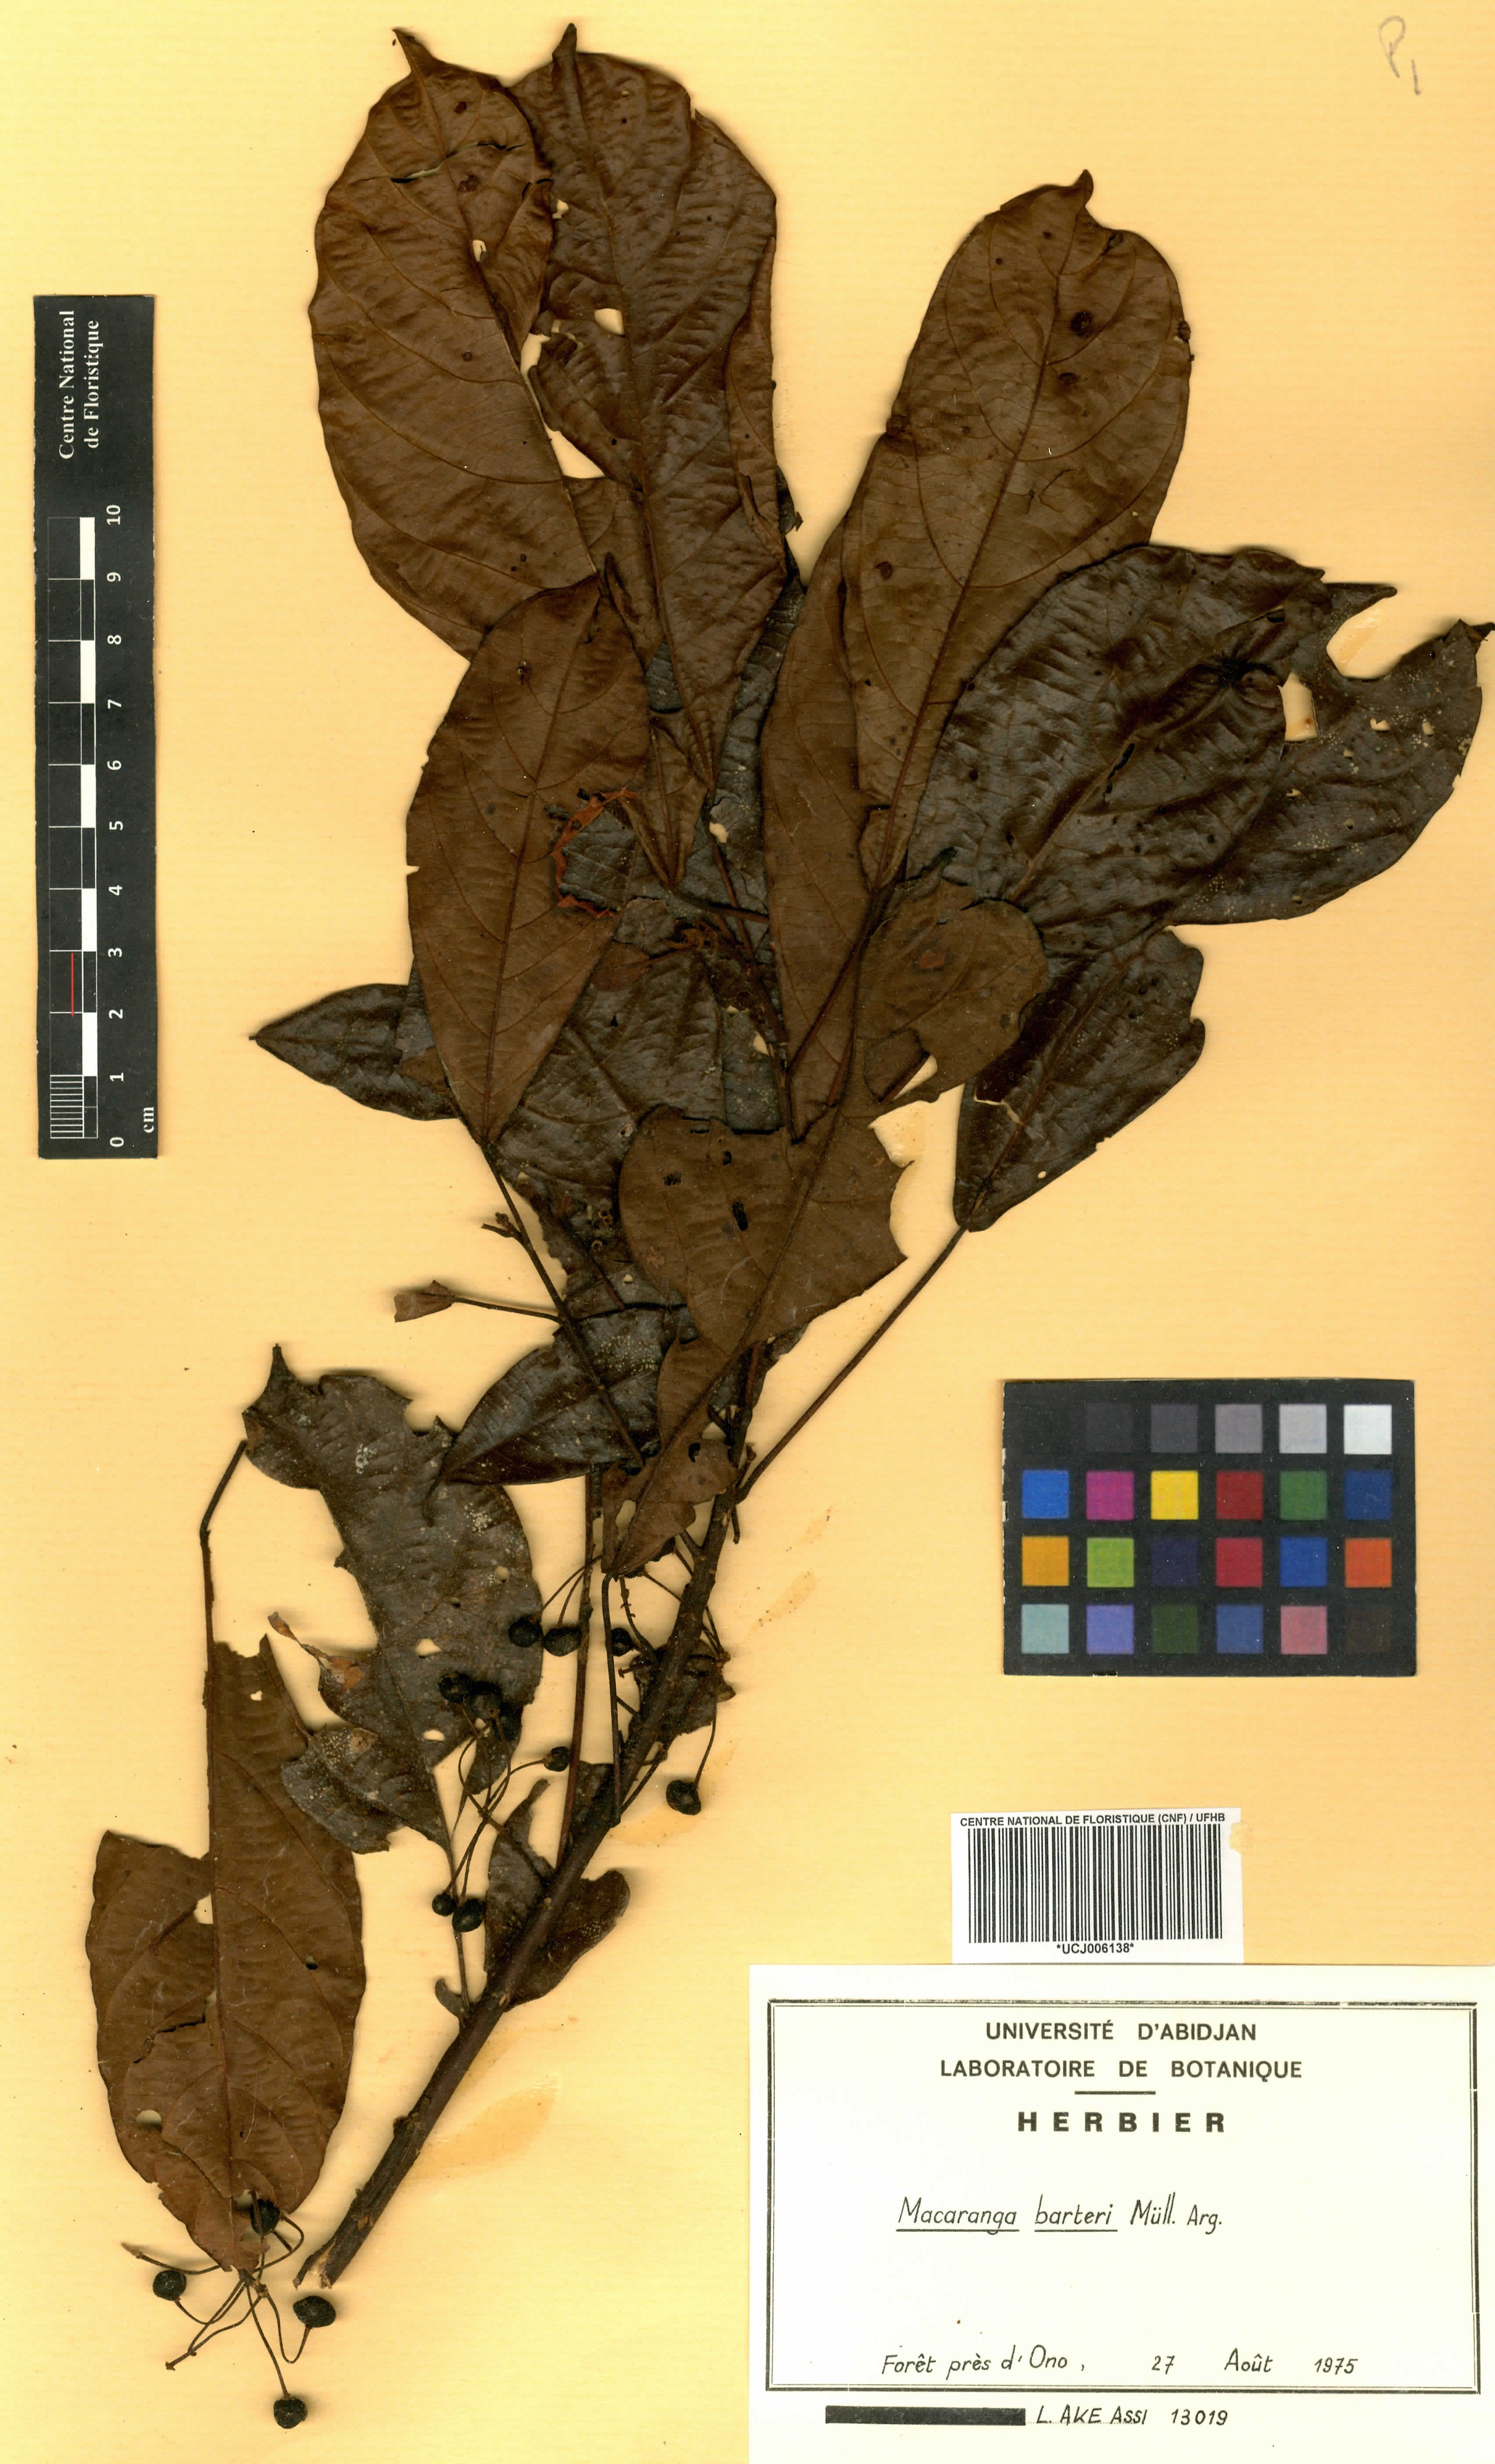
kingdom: Plantae
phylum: Tracheophyta
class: Magnoliopsida
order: Malpighiales
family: Euphorbiaceae
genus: Macaranga
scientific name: Macaranga barteri
